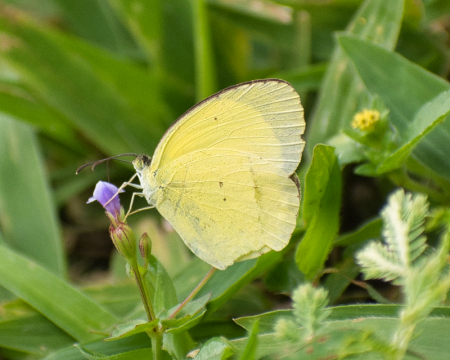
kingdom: Animalia
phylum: Arthropoda
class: Insecta
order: Lepidoptera
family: Pieridae
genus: Pyrisitia
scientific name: Pyrisitia nise
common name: Mimosa Yellow
